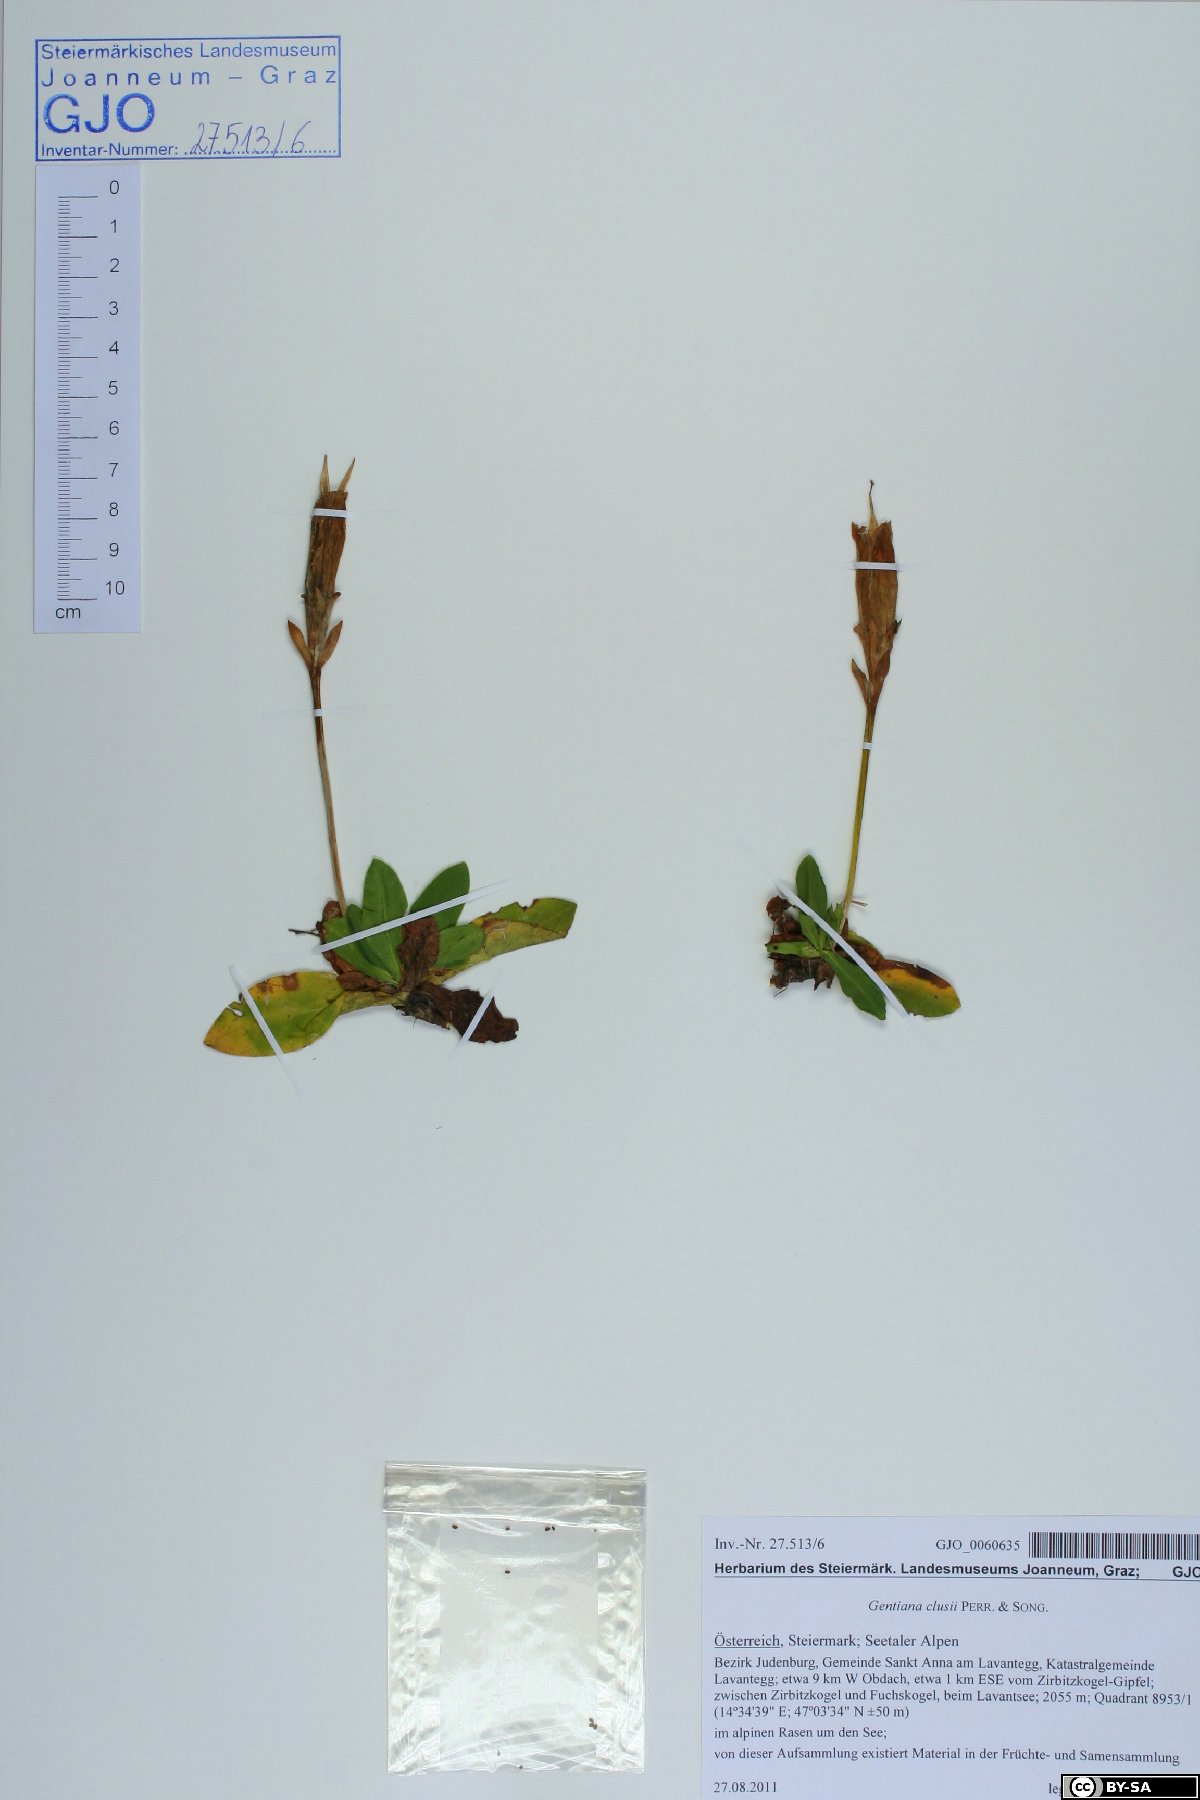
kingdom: Plantae
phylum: Tracheophyta
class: Magnoliopsida
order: Gentianales
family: Gentianaceae
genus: Gentiana
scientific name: Gentiana acaulis
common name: Trumpet gentian
